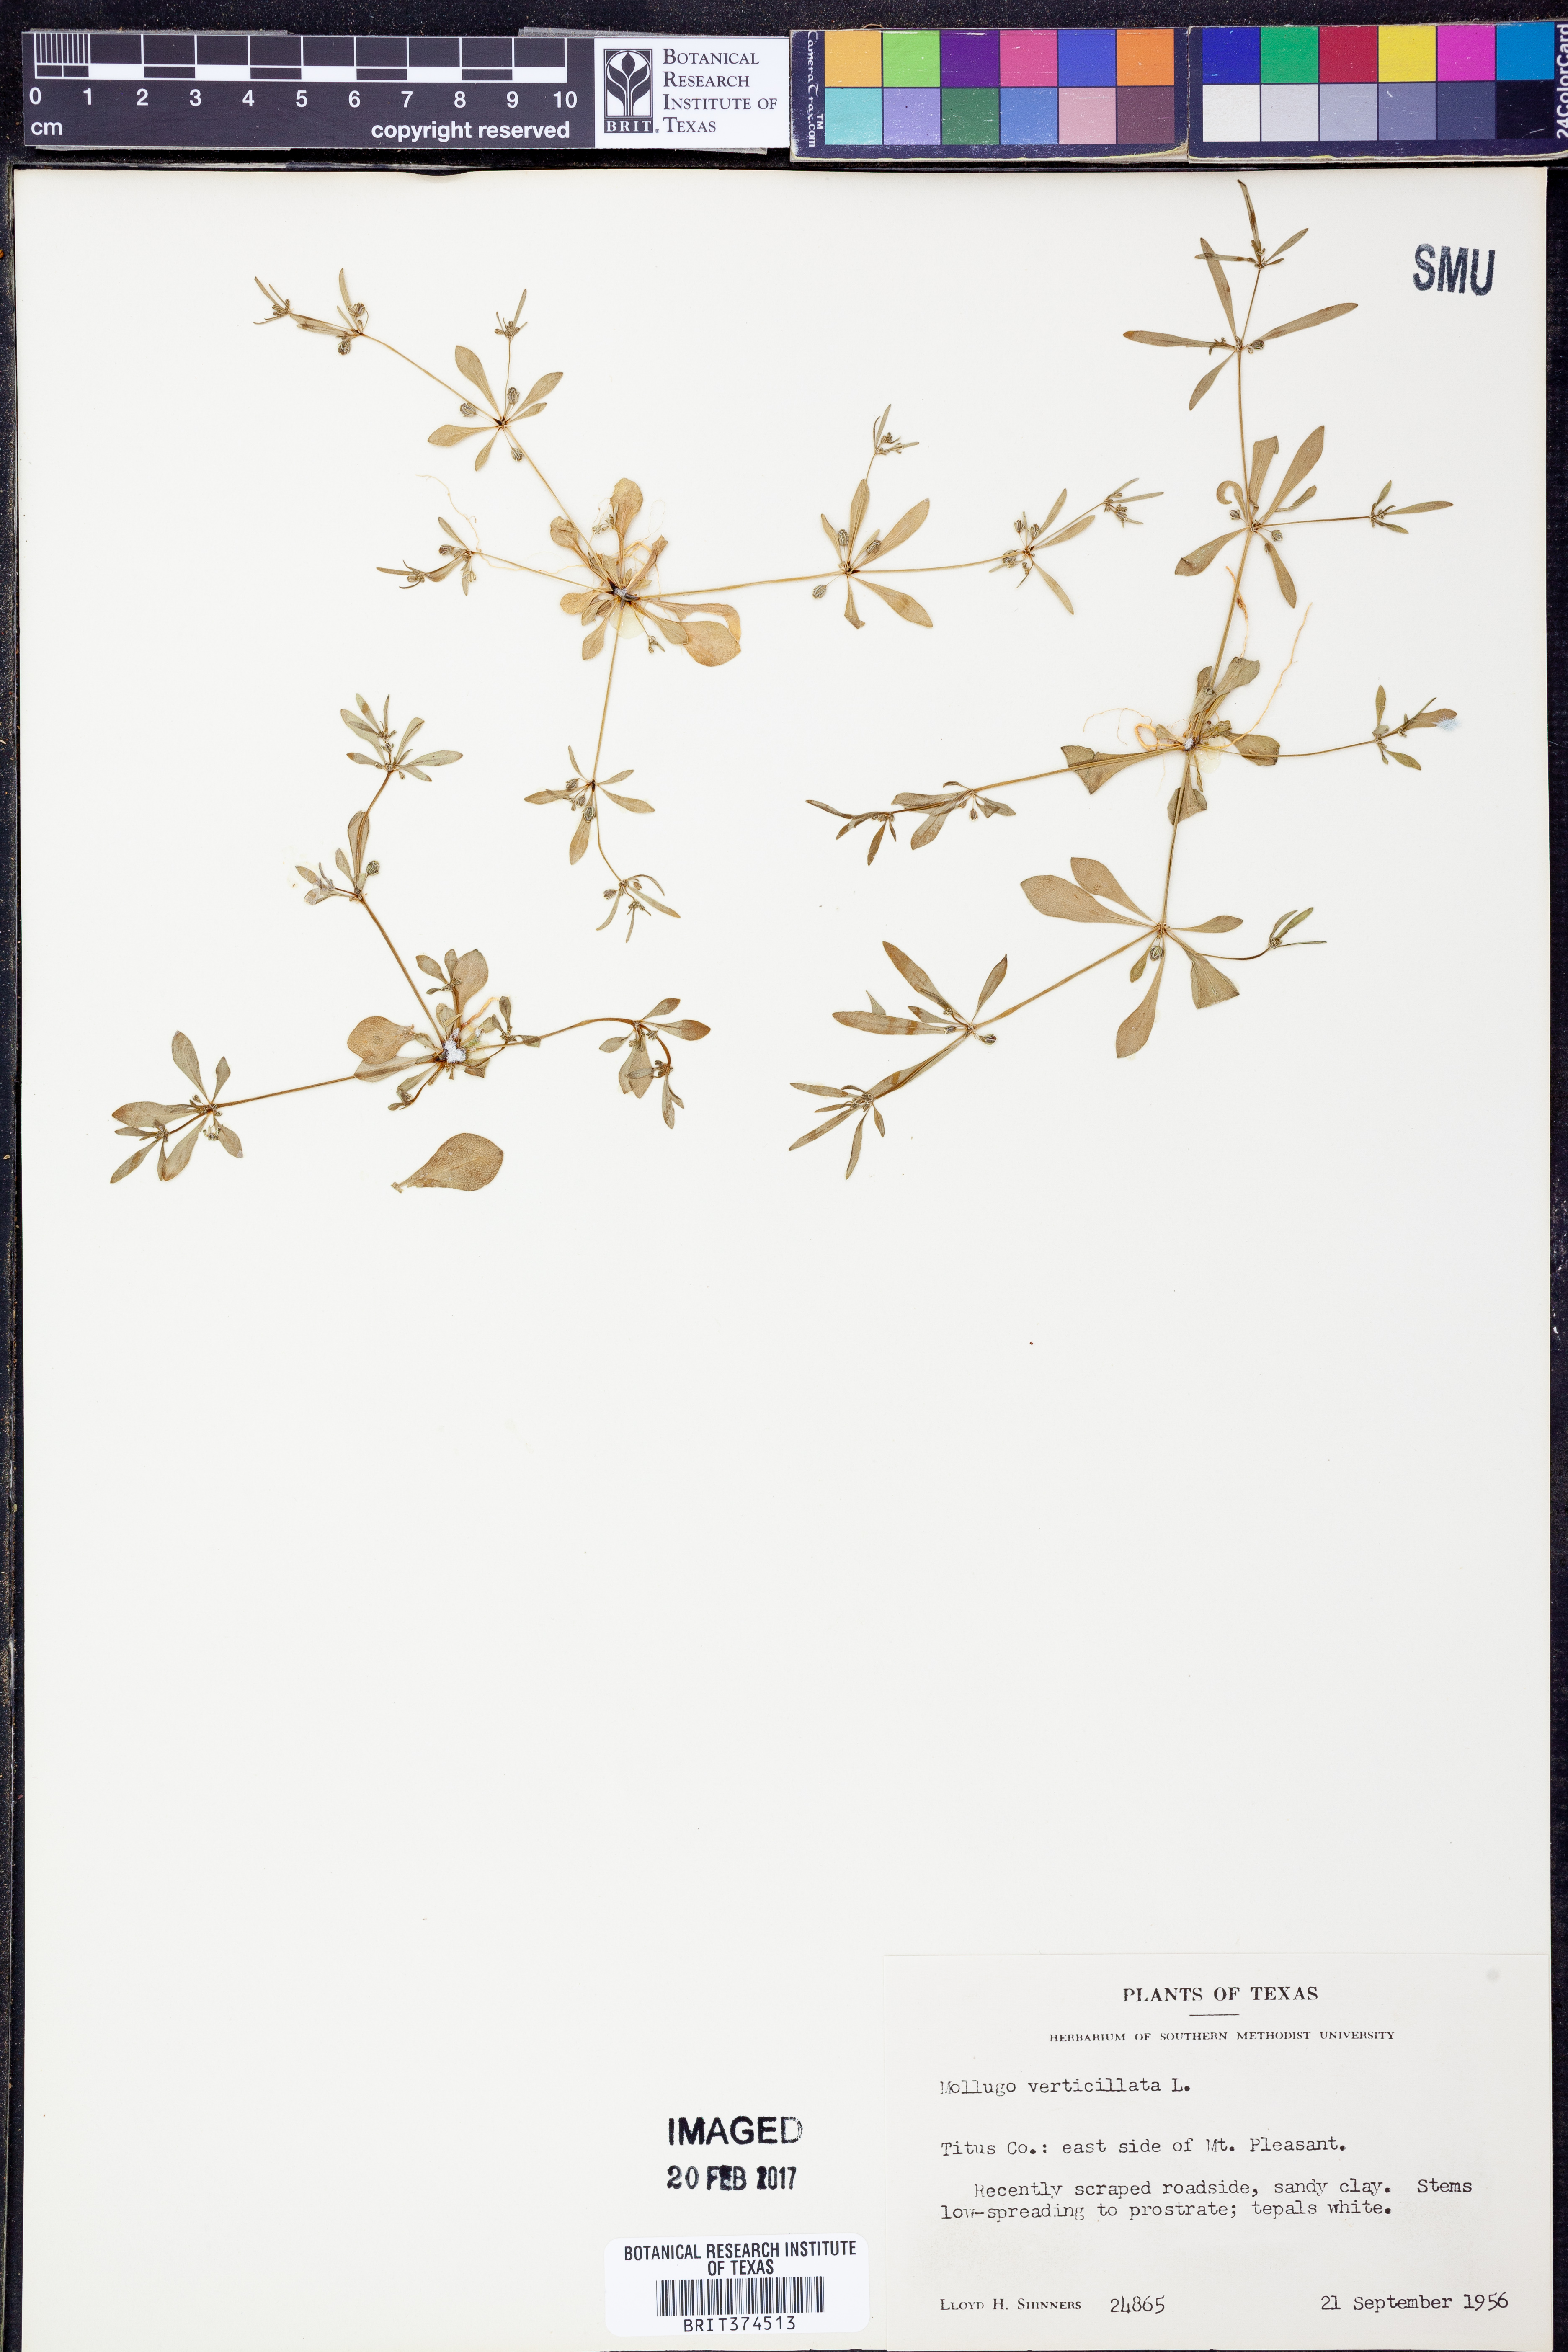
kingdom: Plantae
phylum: Tracheophyta
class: Magnoliopsida
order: Caryophyllales
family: Molluginaceae
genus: Mollugo
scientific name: Mollugo verticillata
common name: Green carpetweed
